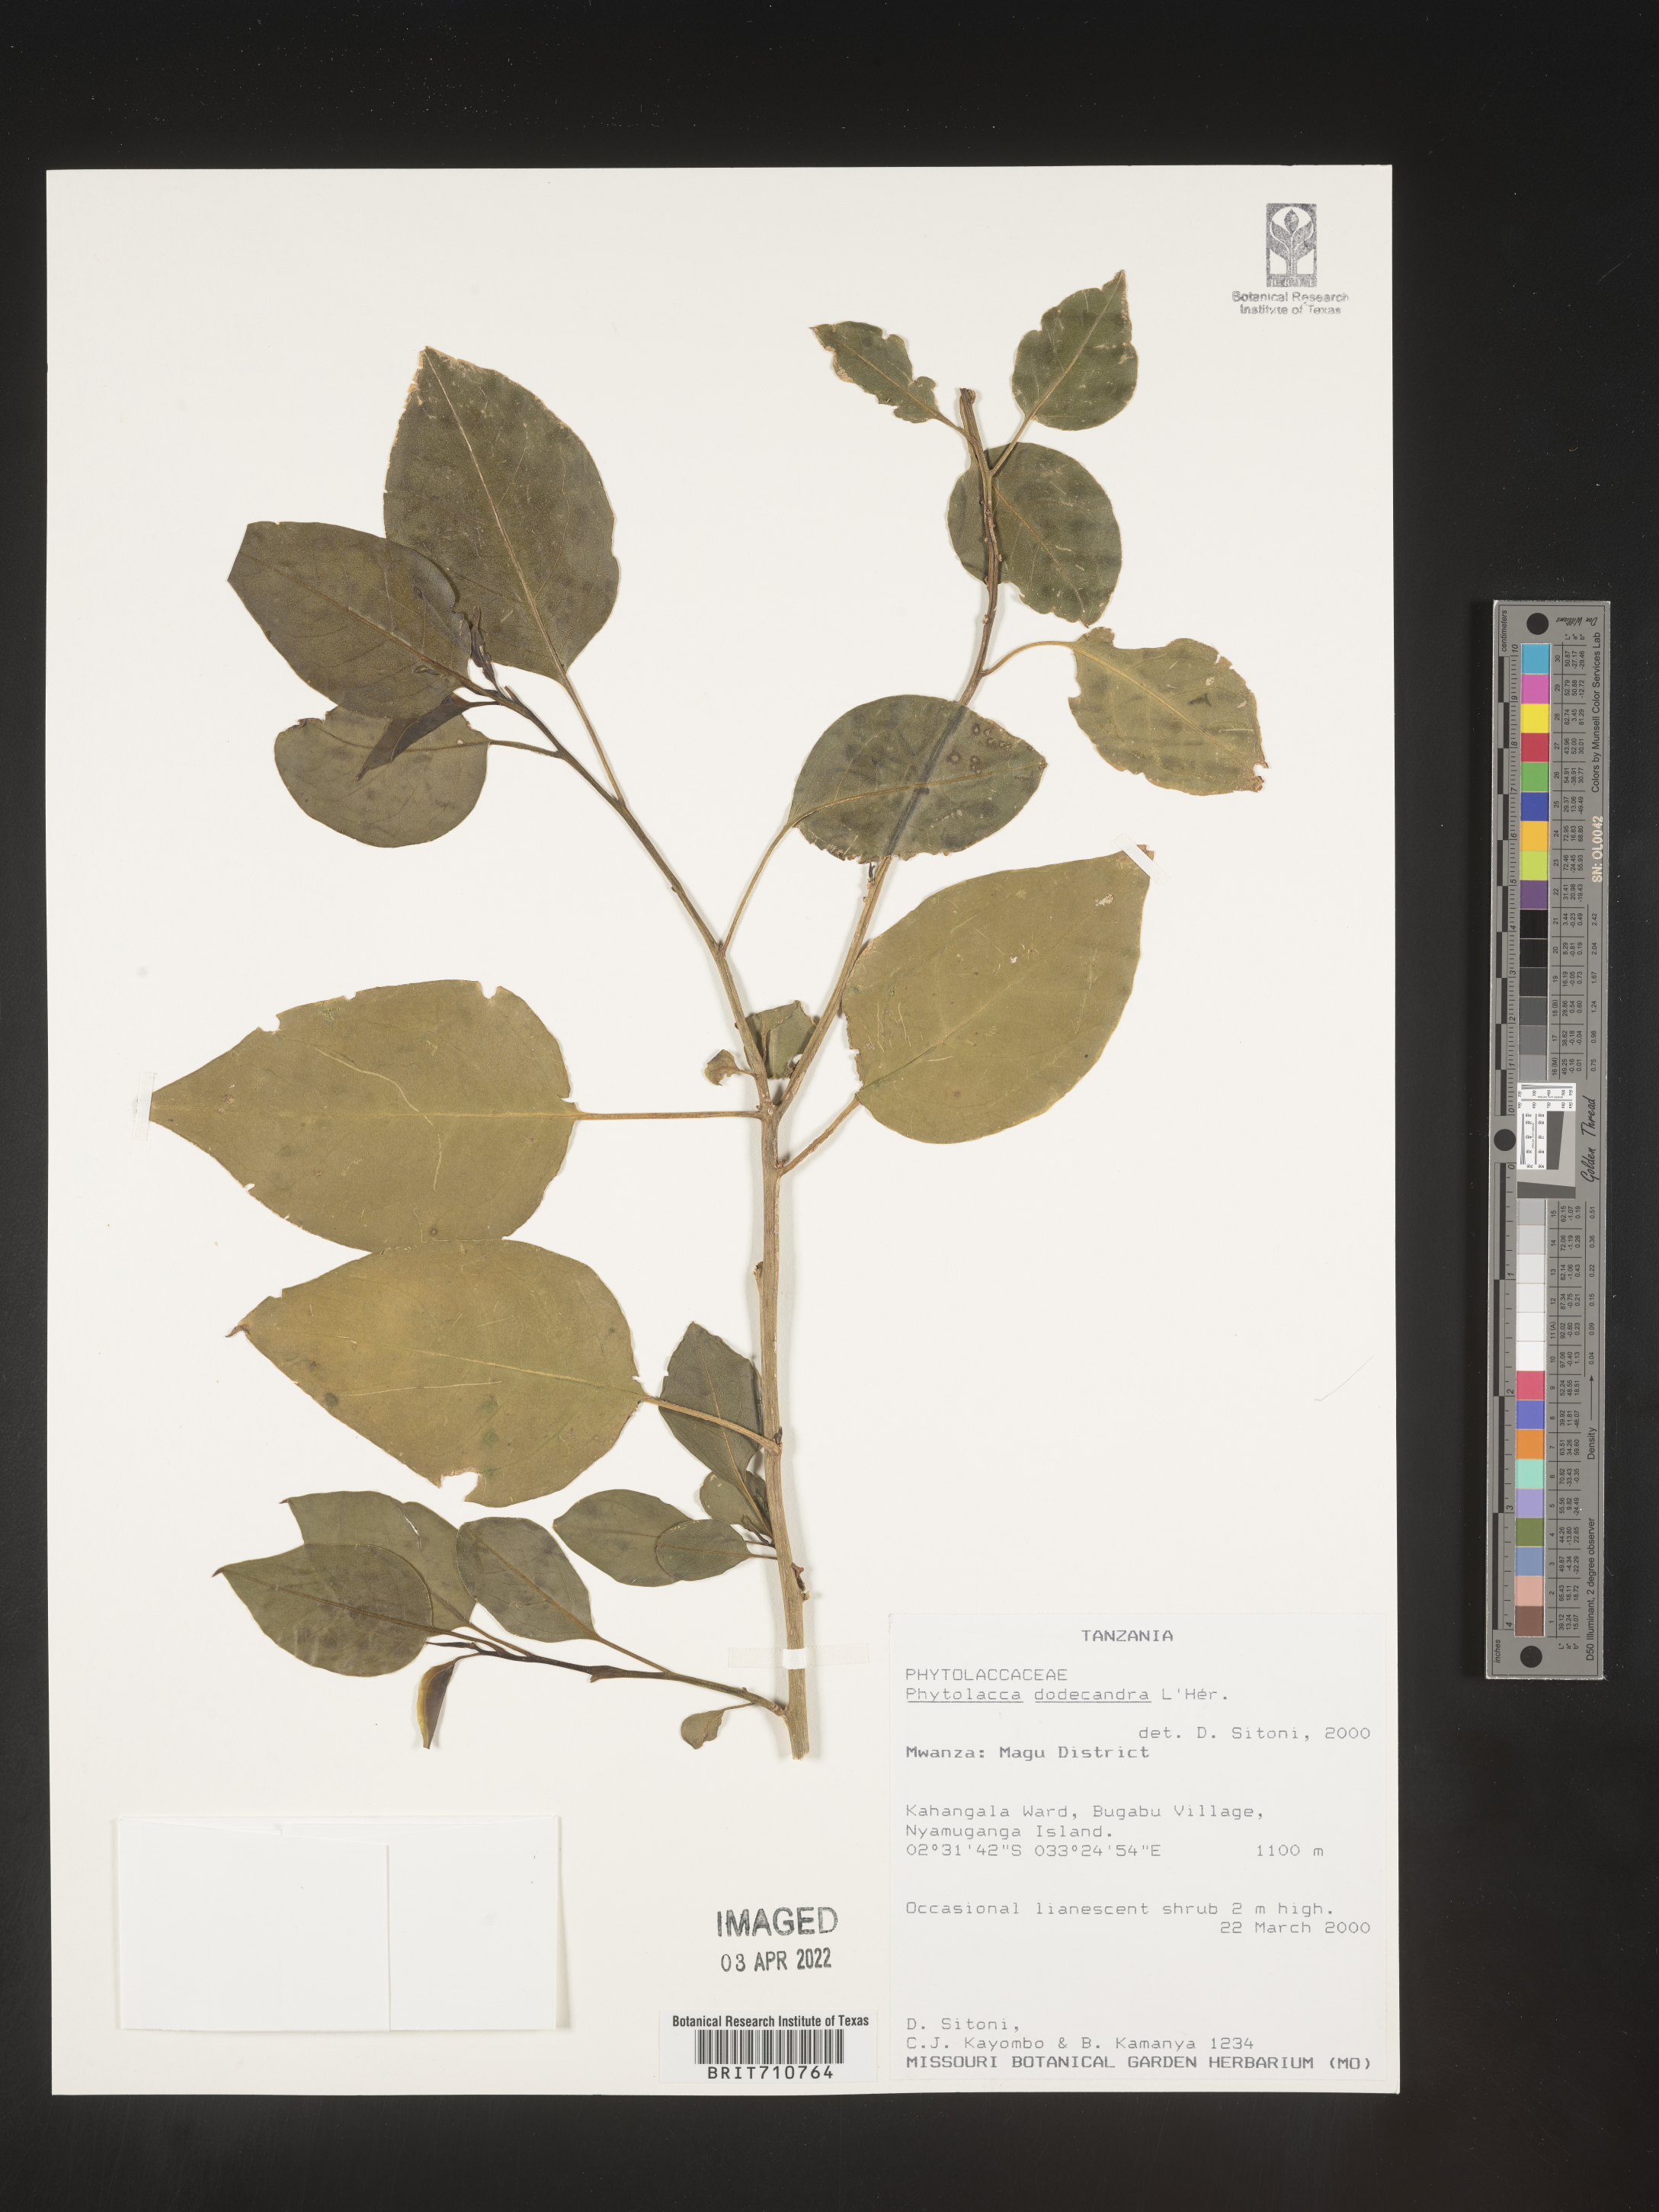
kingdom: Plantae
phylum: Tracheophyta
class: Magnoliopsida
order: Caryophyllales
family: Phytolaccaceae
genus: Phytolacca
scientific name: Phytolacca
